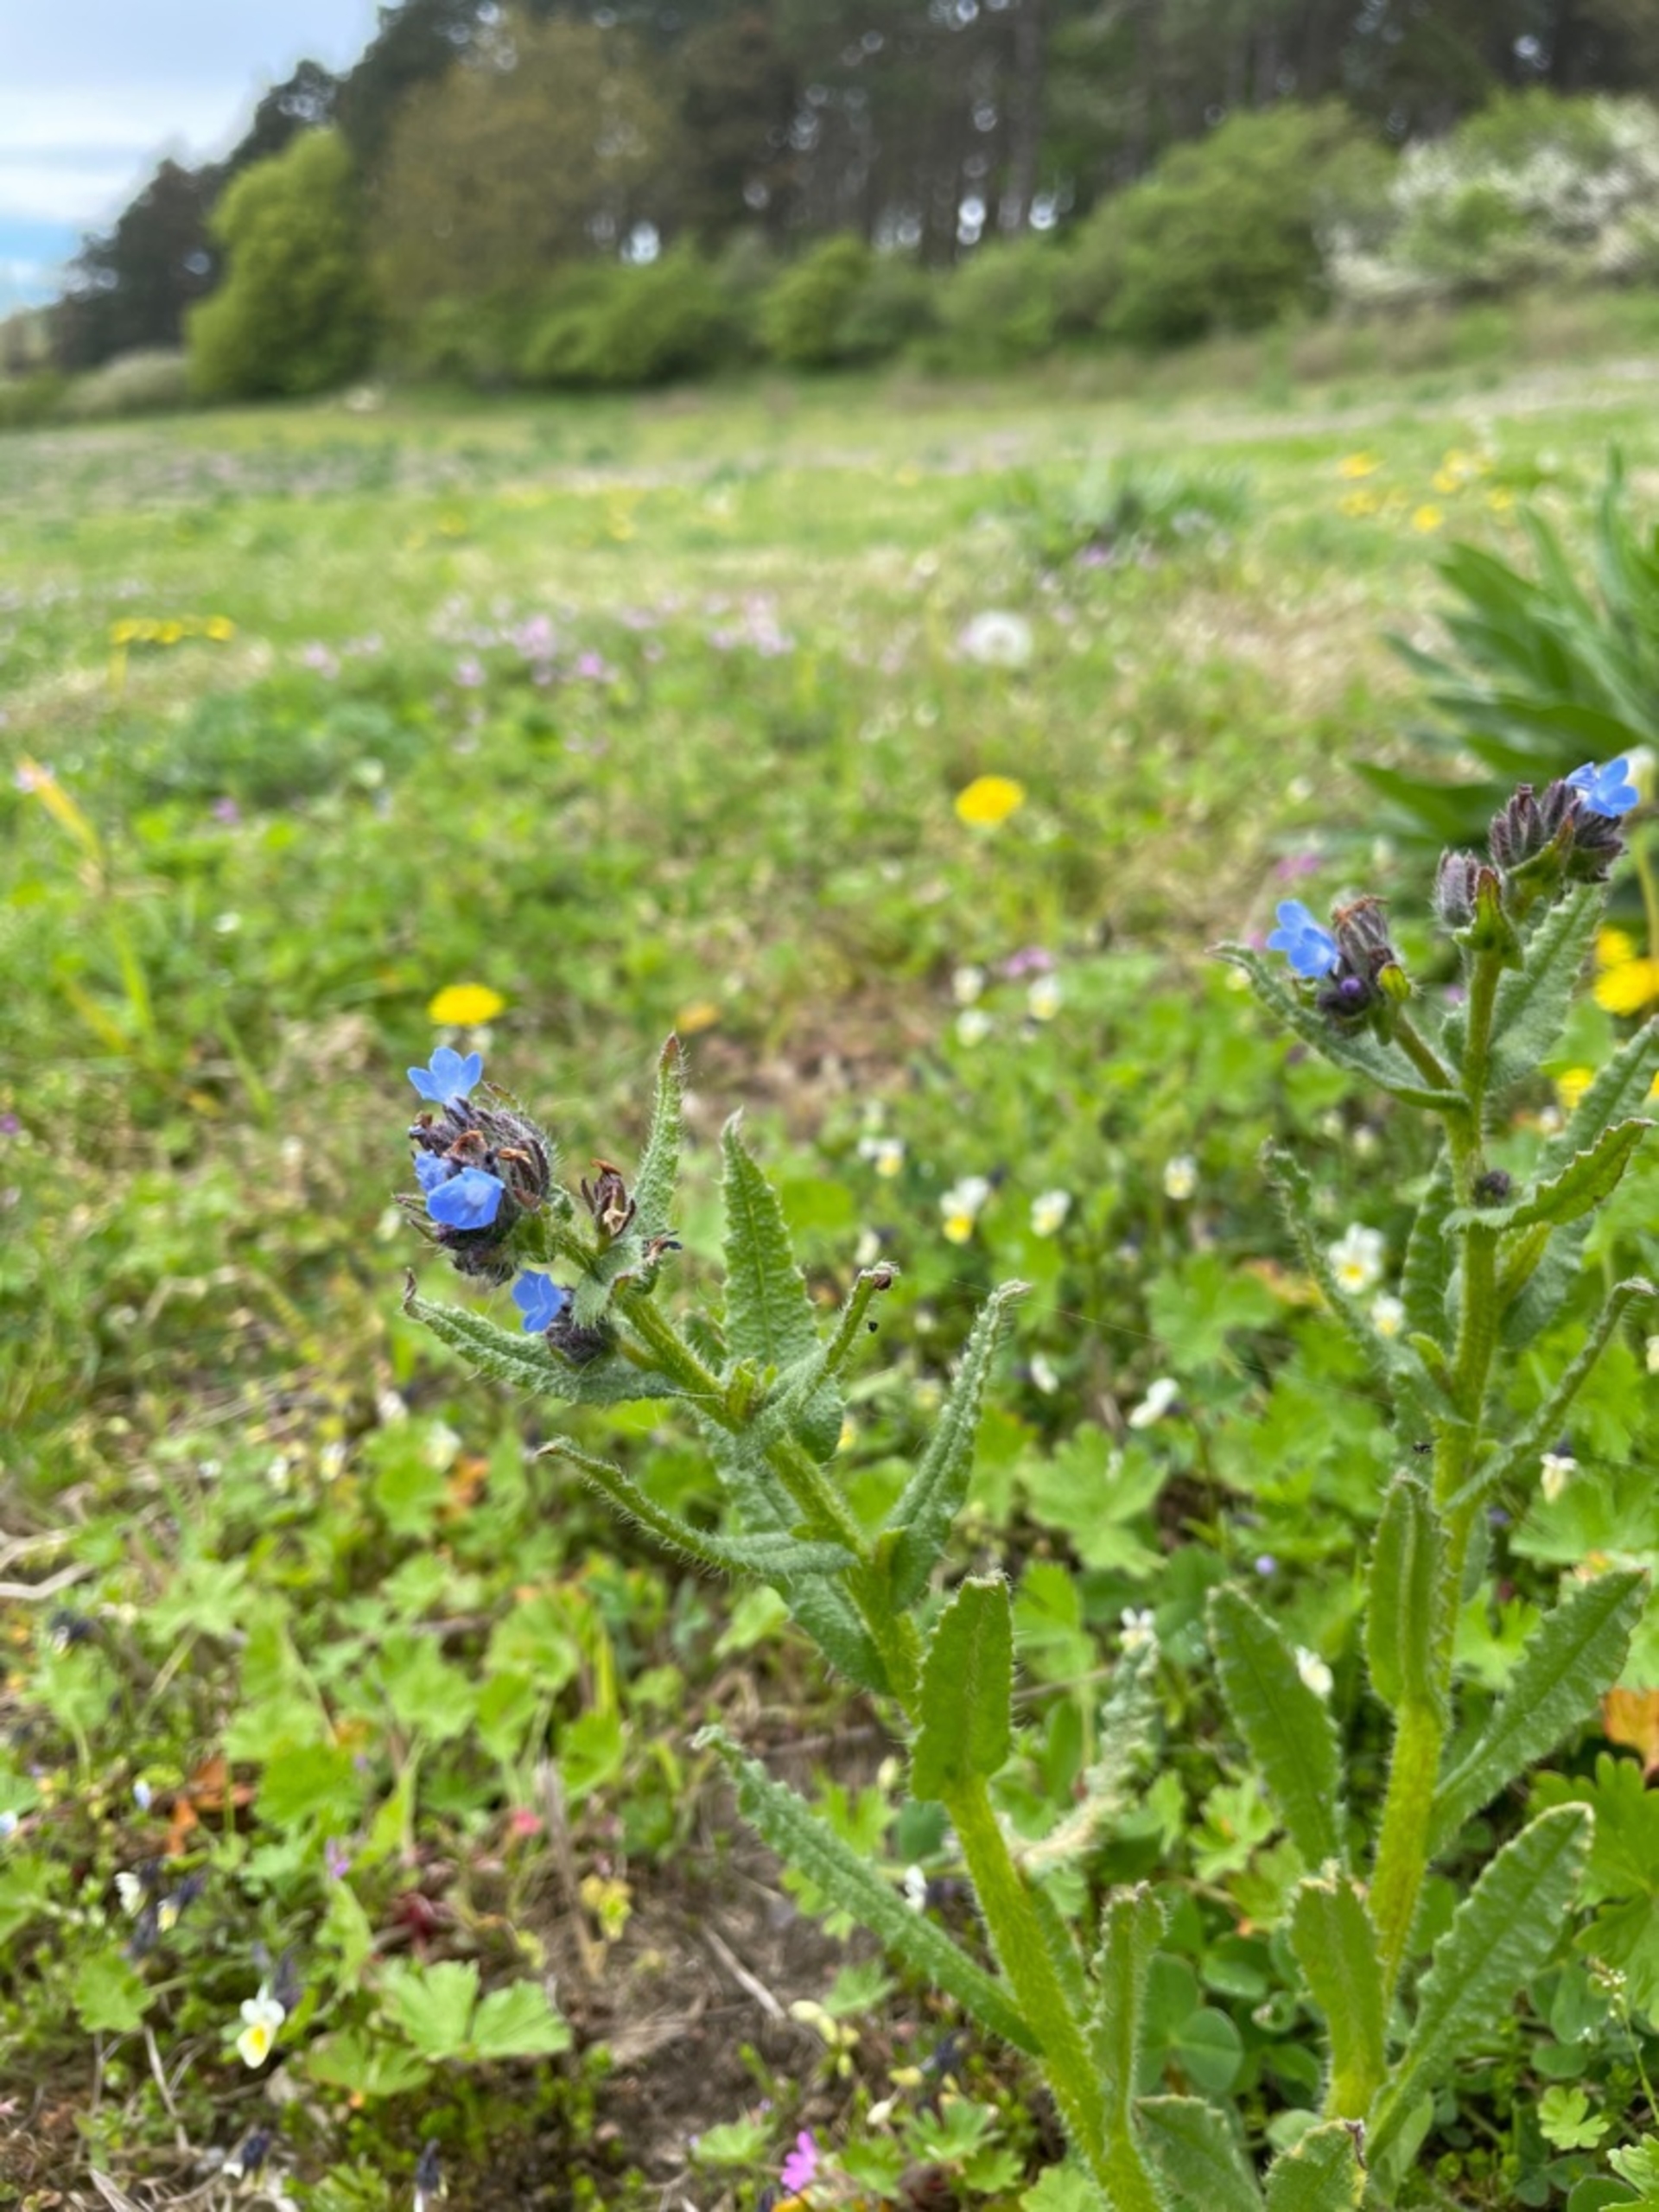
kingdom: Plantae
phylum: Tracheophyta
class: Magnoliopsida
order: Boraginales
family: Boraginaceae
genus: Lycopsis
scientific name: Lycopsis arvensis
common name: Krumhals
